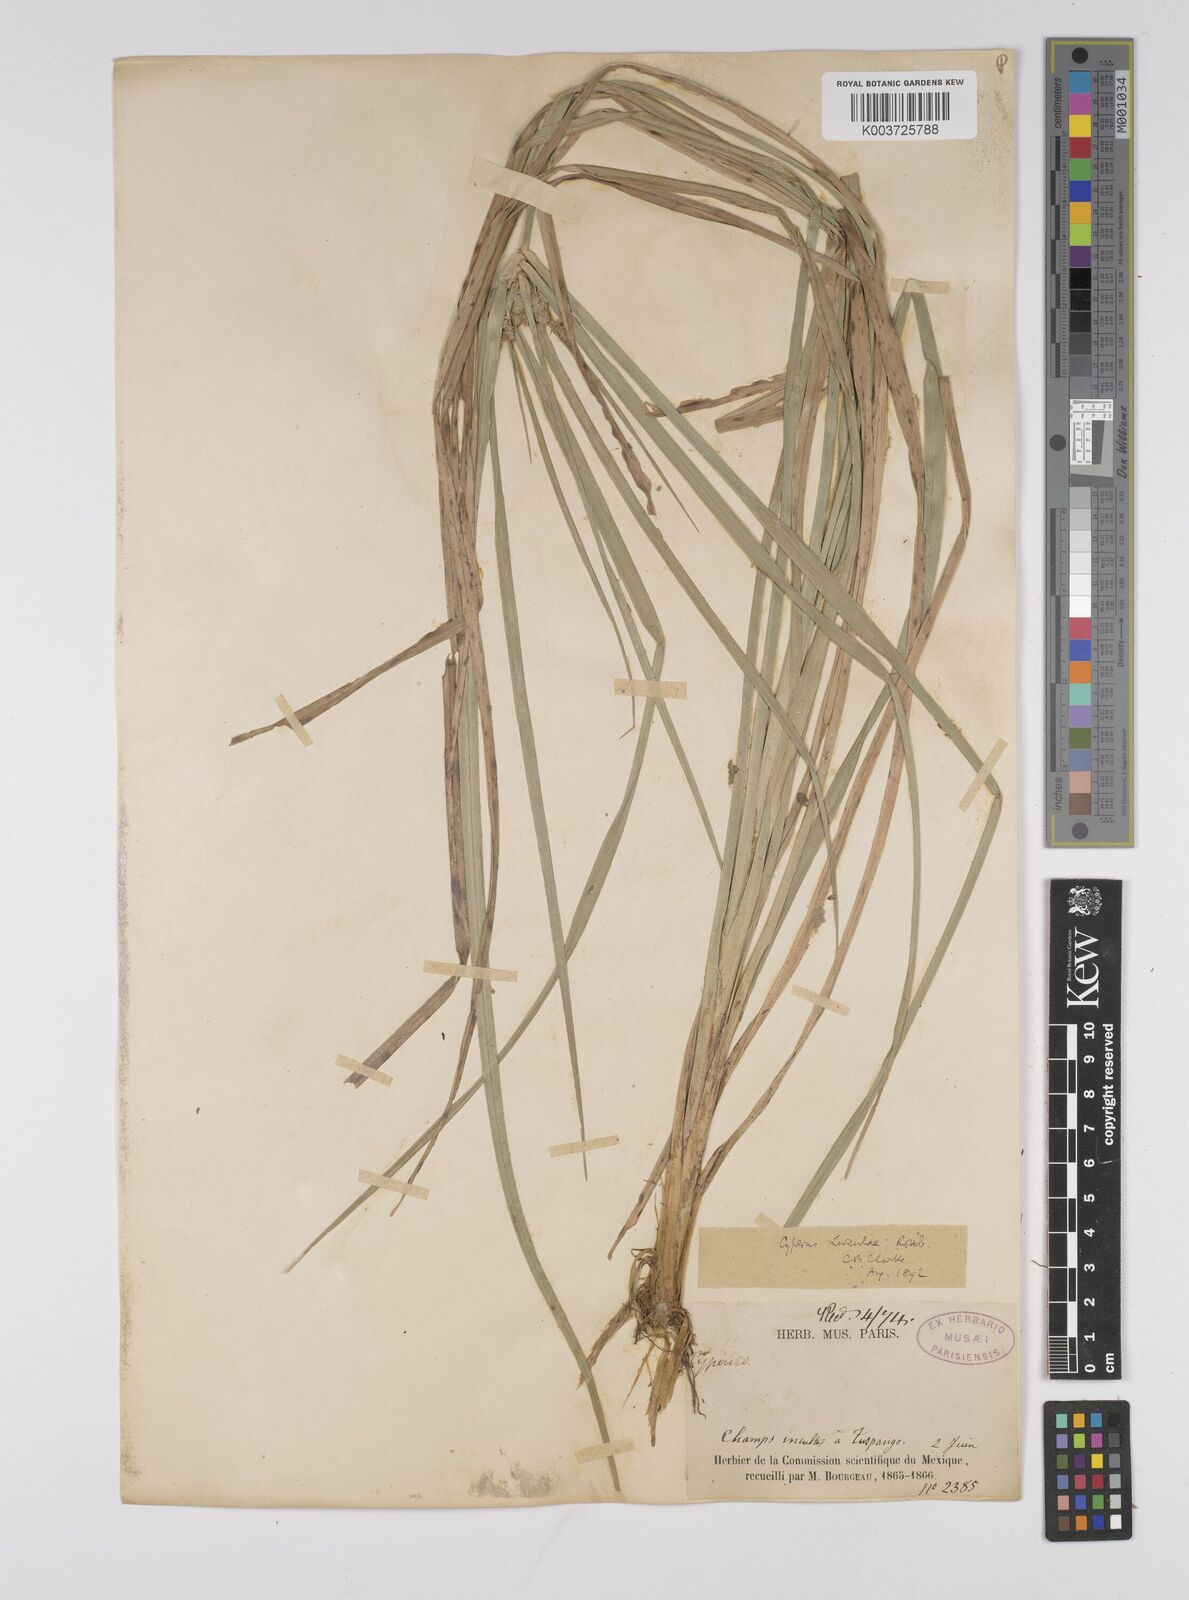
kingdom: Plantae
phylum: Tracheophyta
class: Liliopsida
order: Poales
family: Cyperaceae
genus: Cyperus
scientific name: Cyperus luzulae
